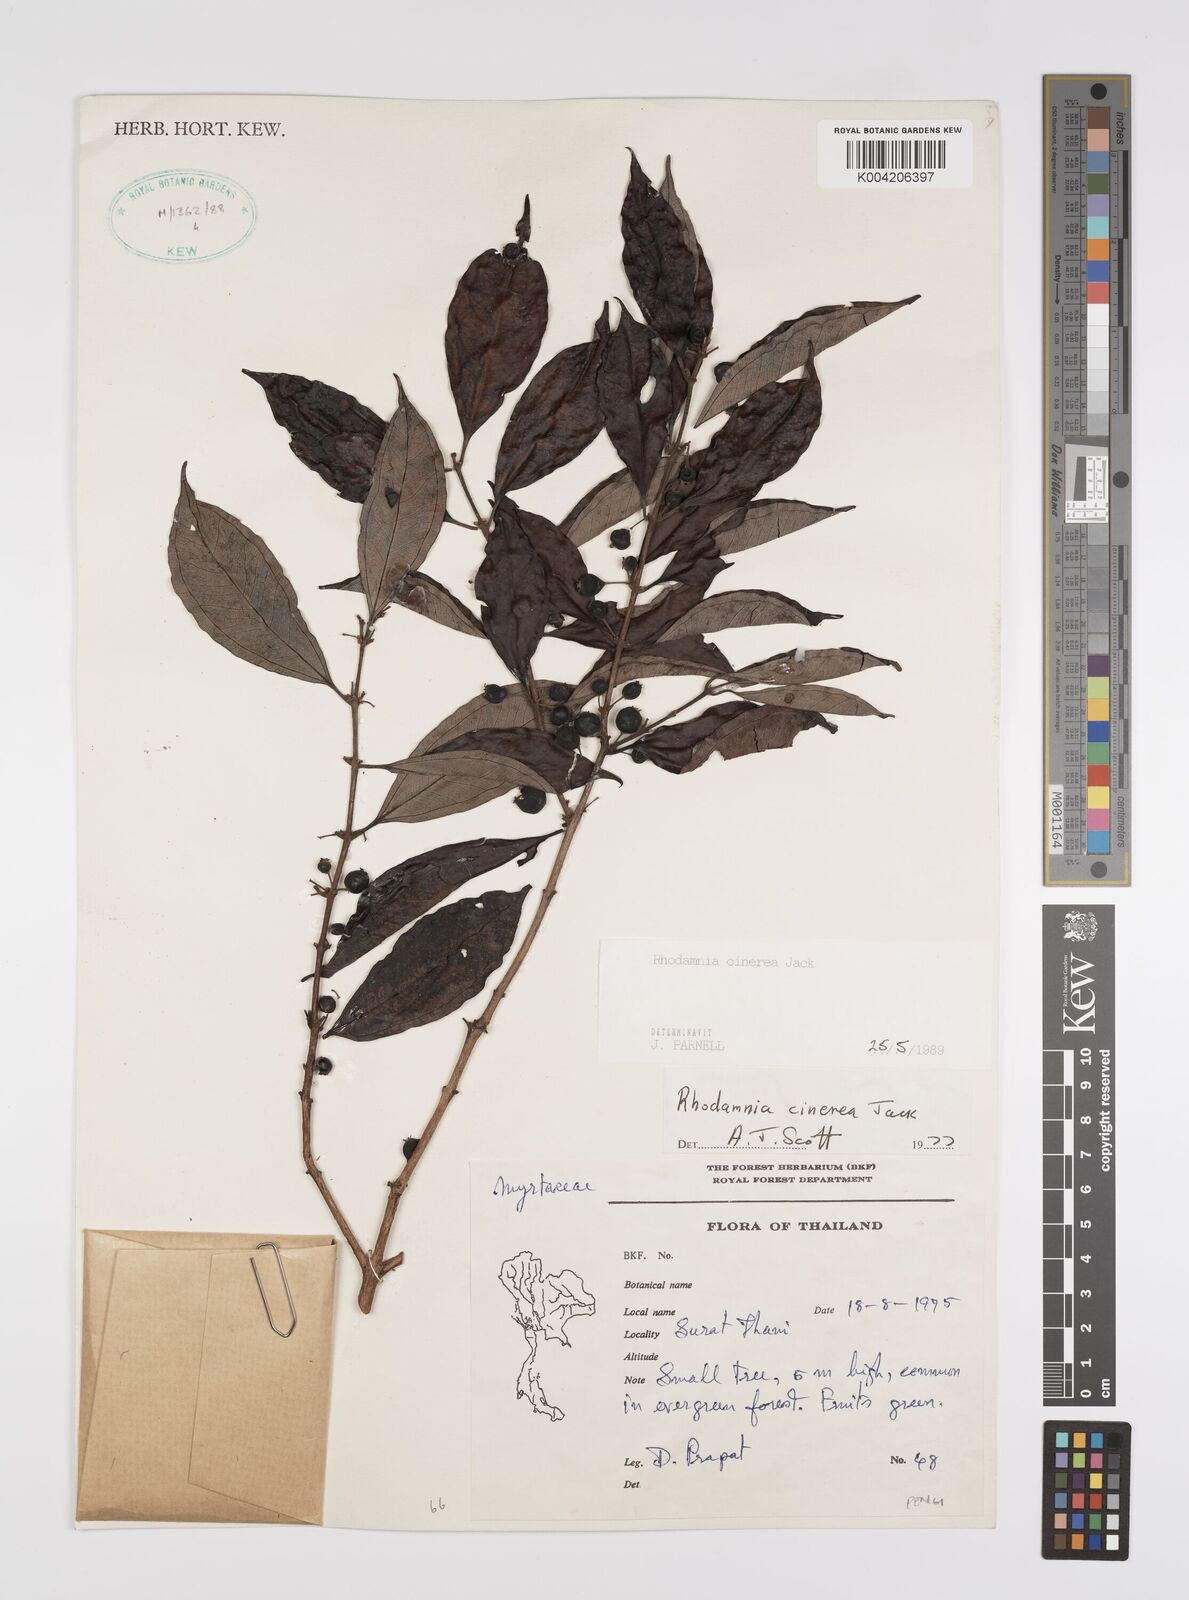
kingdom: Plantae
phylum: Tracheophyta
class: Magnoliopsida
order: Myrtales
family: Myrtaceae
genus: Rhodamnia
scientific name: Rhodamnia cinerea
